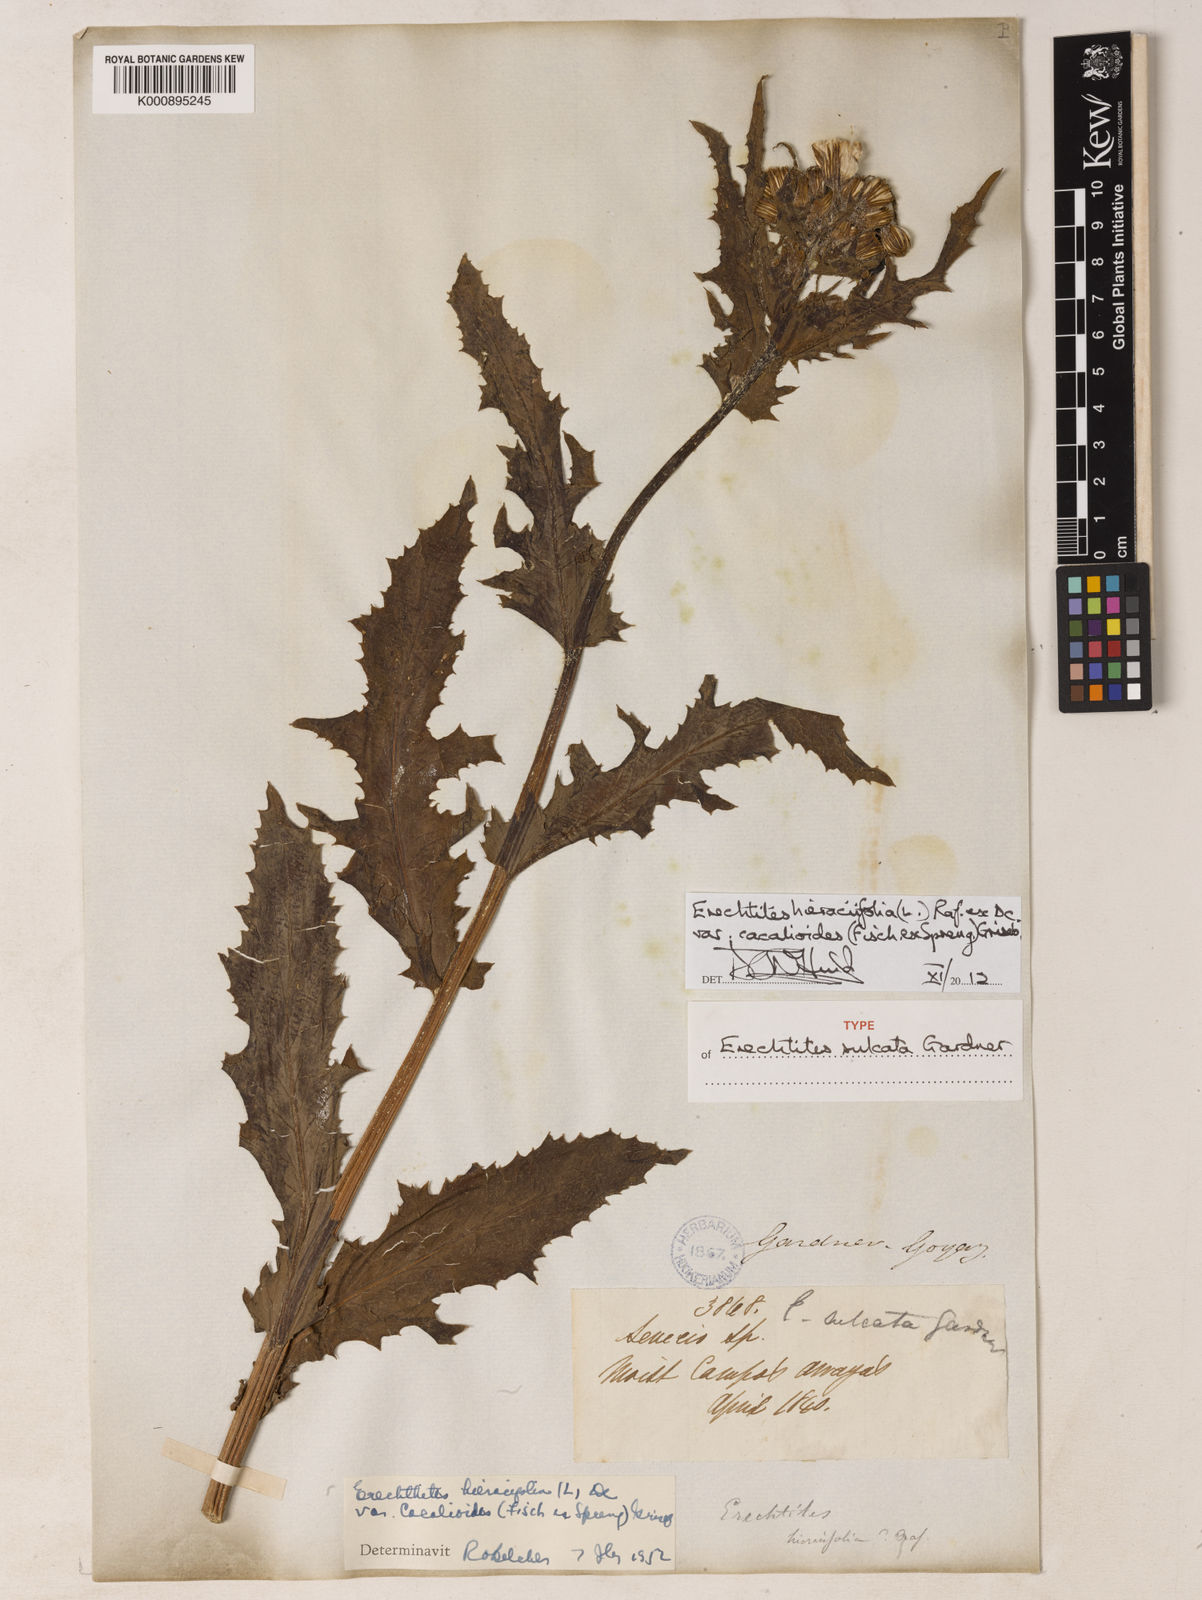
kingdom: Plantae
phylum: Tracheophyta
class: Magnoliopsida
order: Asterales
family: Asteraceae
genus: Erechtites
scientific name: Erechtites hieraciifolius
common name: American burnweed
